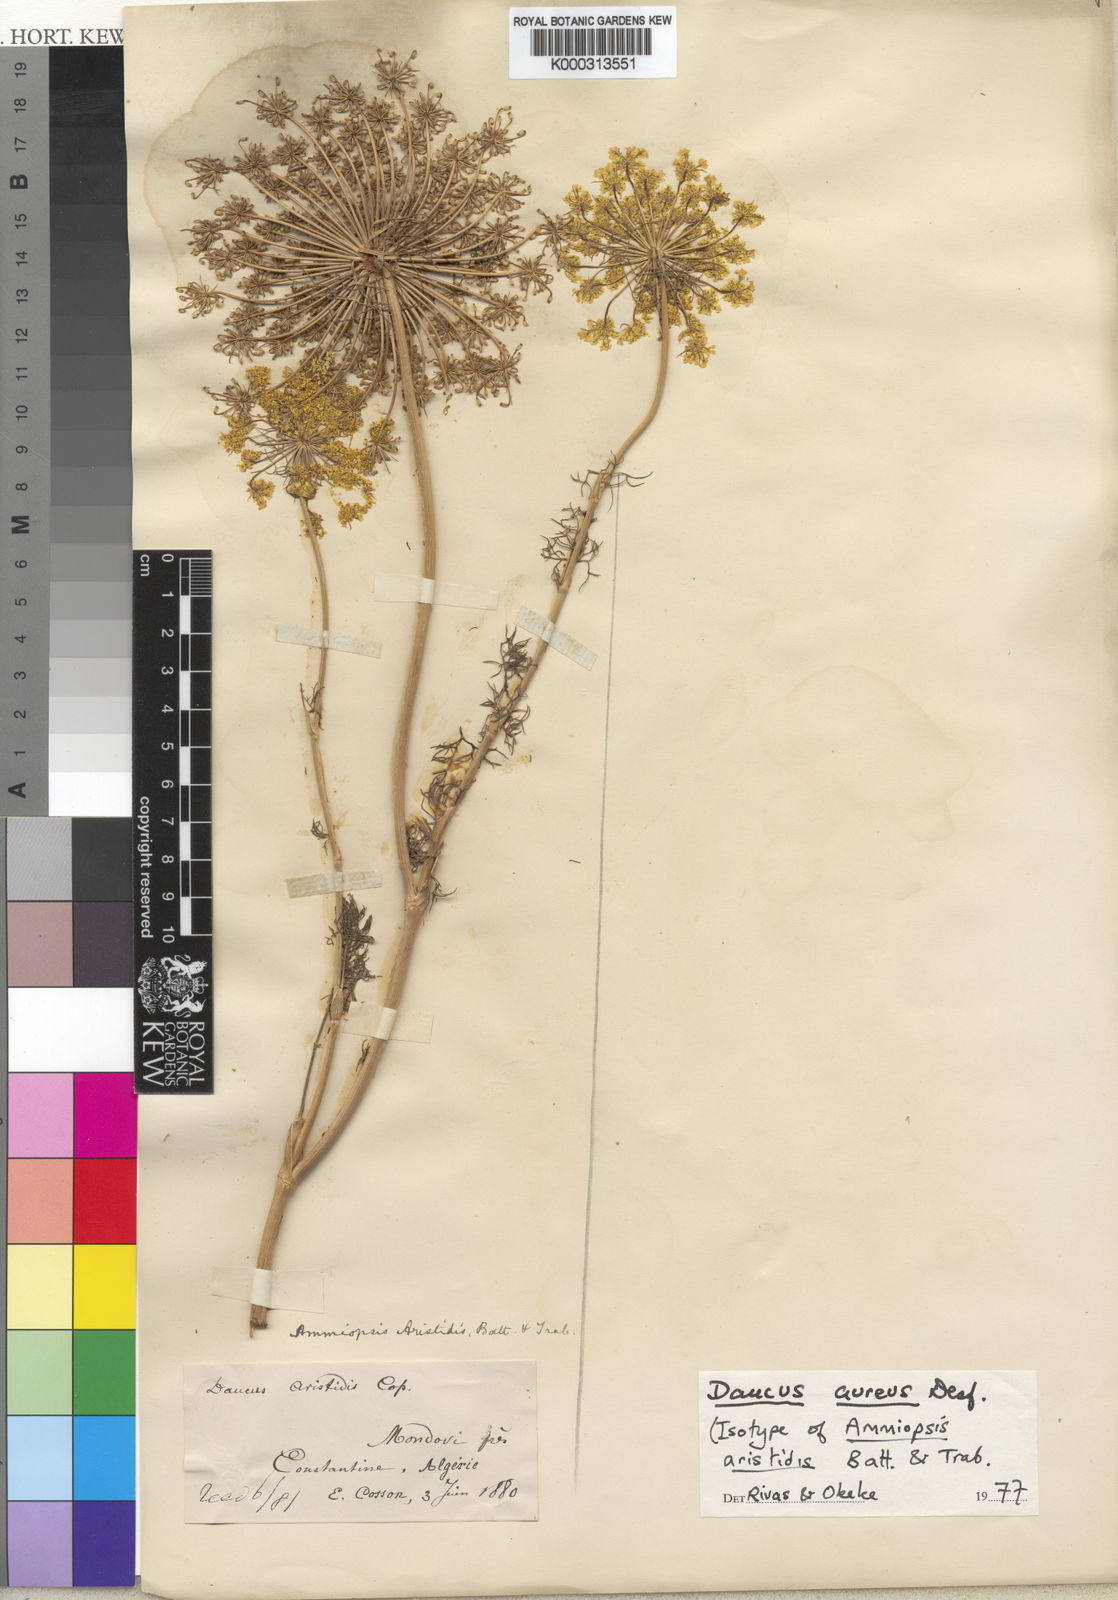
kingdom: Plantae
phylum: Tracheophyta
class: Magnoliopsida
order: Apiales
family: Apiaceae
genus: Daucus
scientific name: Daucus aureus
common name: Golden carrot
